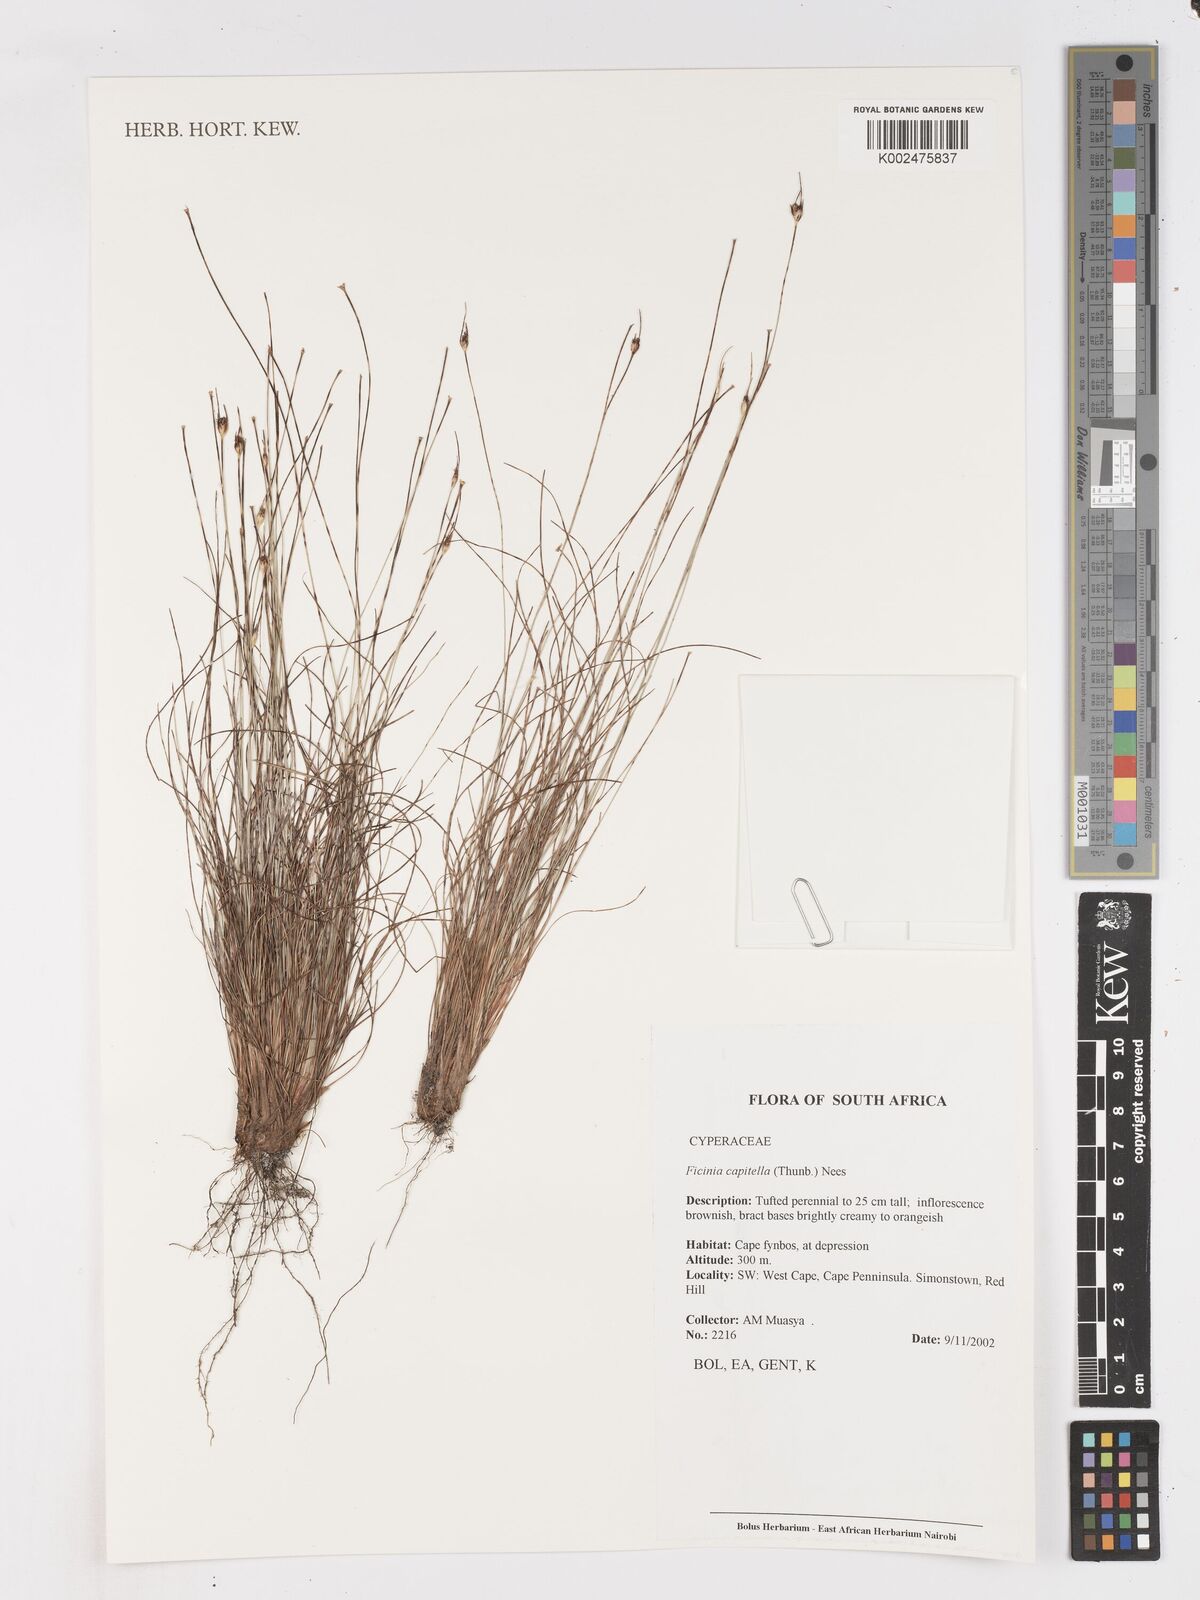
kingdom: Plantae
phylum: Tracheophyta
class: Liliopsida
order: Poales
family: Cyperaceae
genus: Ficinia
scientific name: Ficinia capitella
